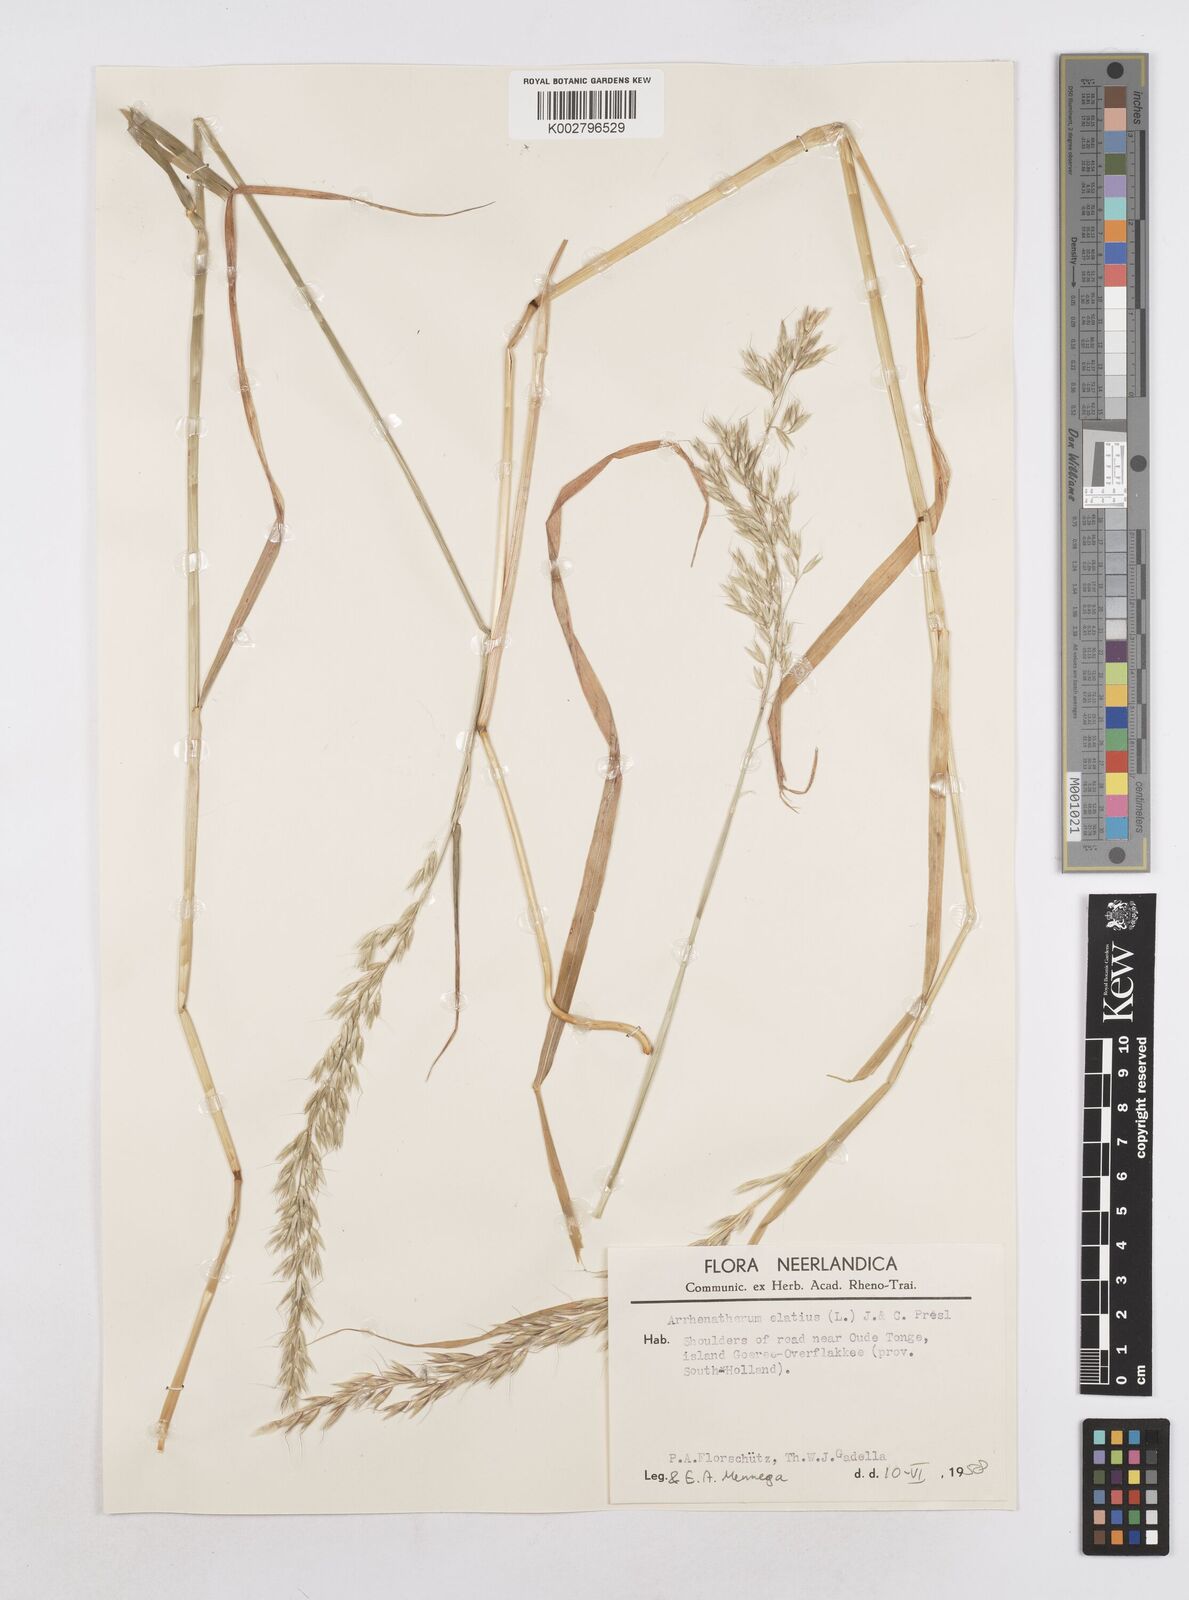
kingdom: Plantae
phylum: Tracheophyta
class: Liliopsida
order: Poales
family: Poaceae
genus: Arrhenatherum
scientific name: Arrhenatherum elatius
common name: Tall oatgrass
